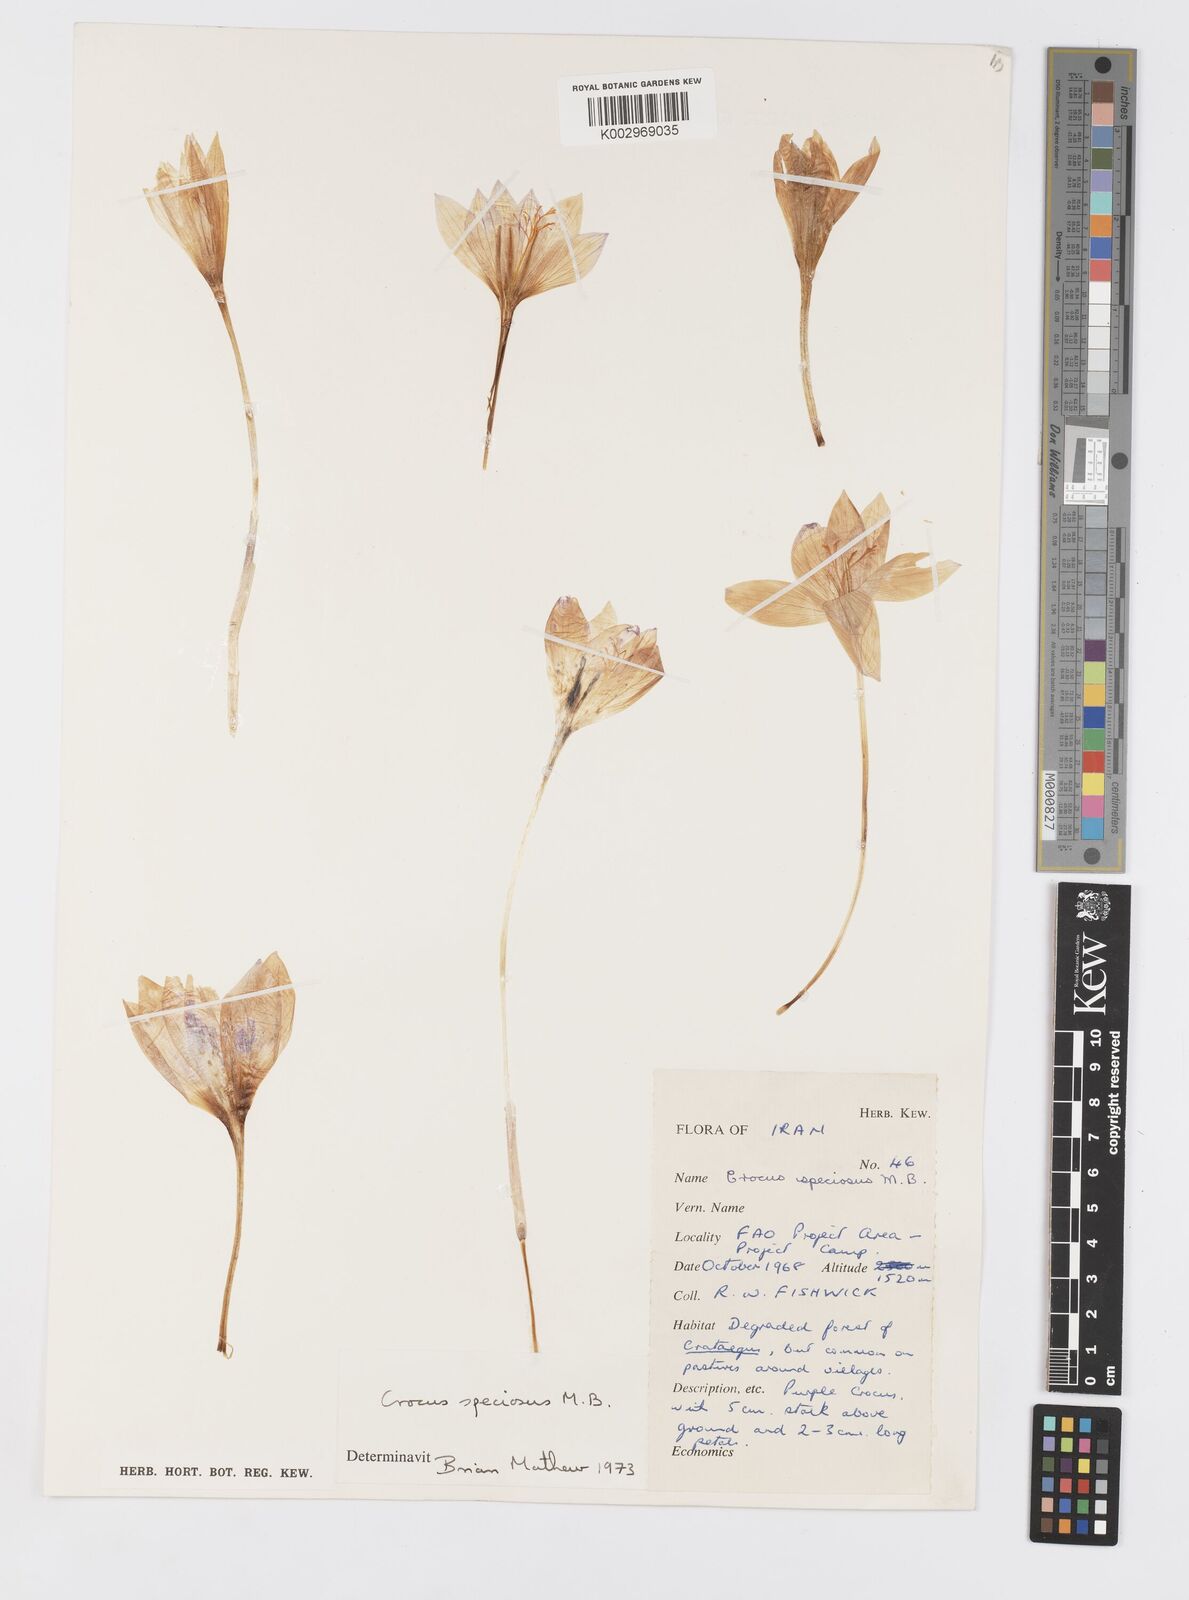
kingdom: Plantae
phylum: Tracheophyta
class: Liliopsida
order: Asparagales
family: Iridaceae
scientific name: Iridaceae
